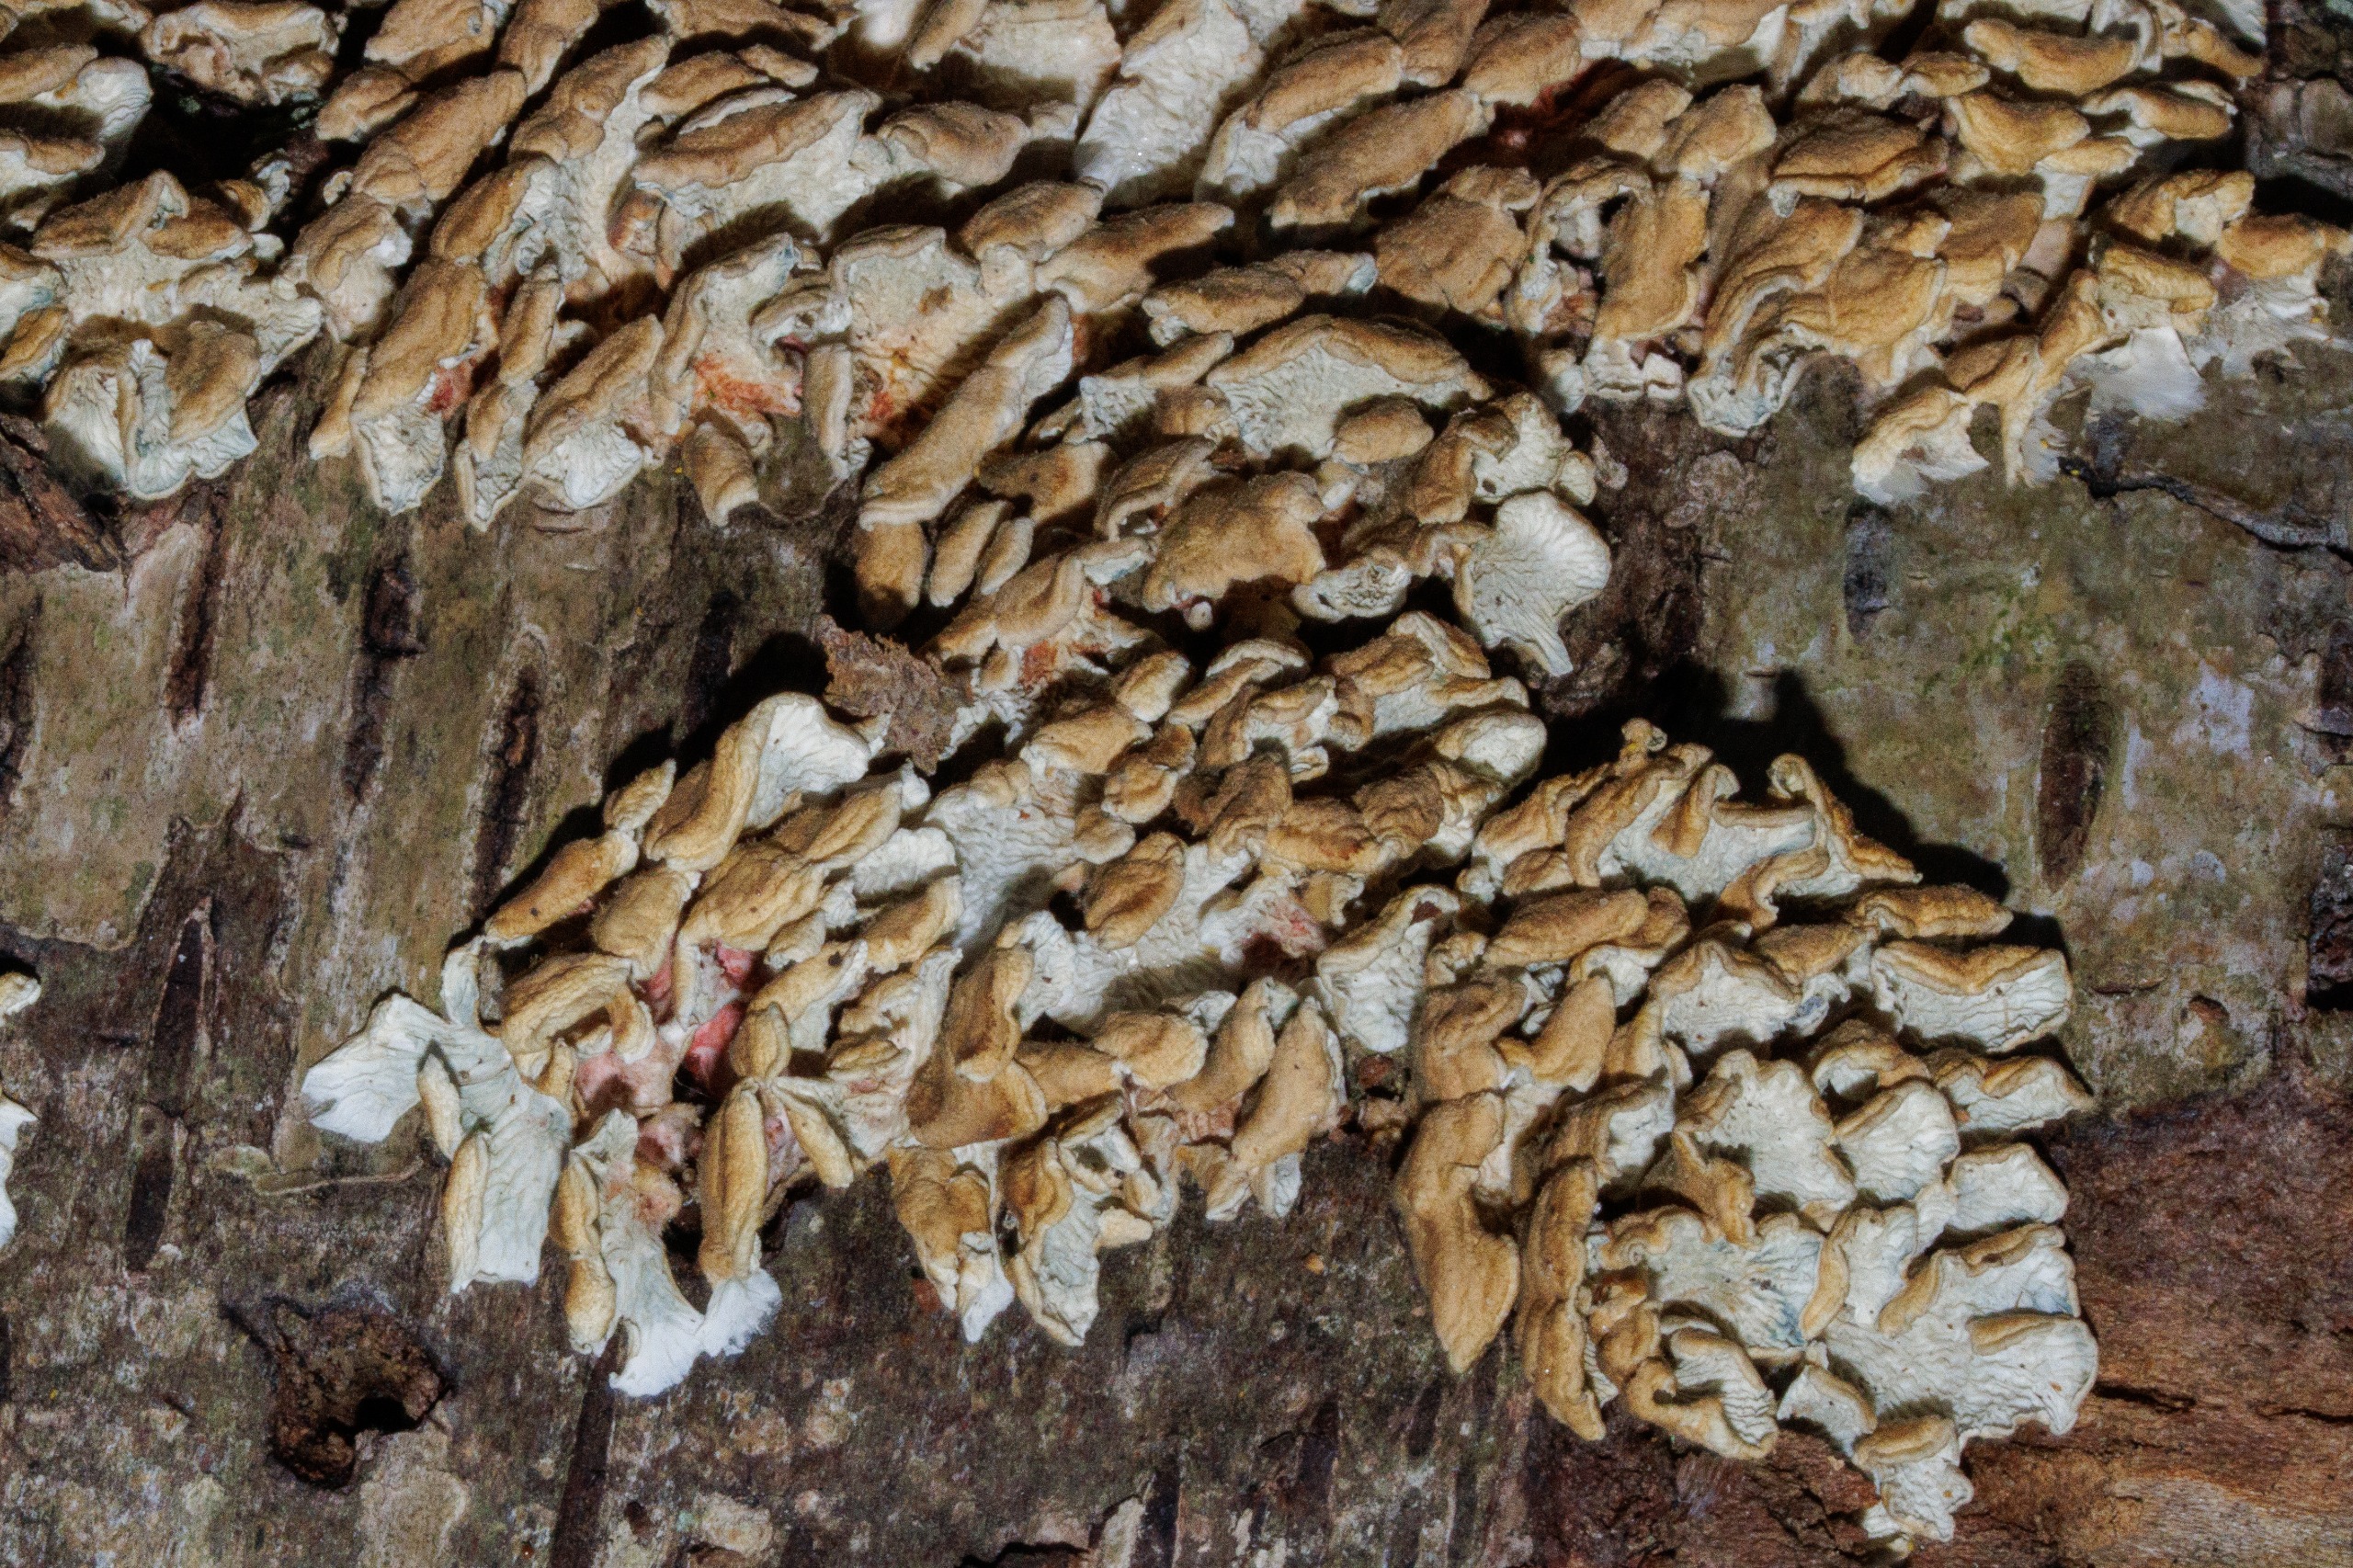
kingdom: Fungi
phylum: Basidiomycota
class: Agaricomycetes
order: Amylocorticiales
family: Amylocorticiaceae
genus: Plicaturopsis
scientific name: Plicaturopsis crispa
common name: Krusblad
